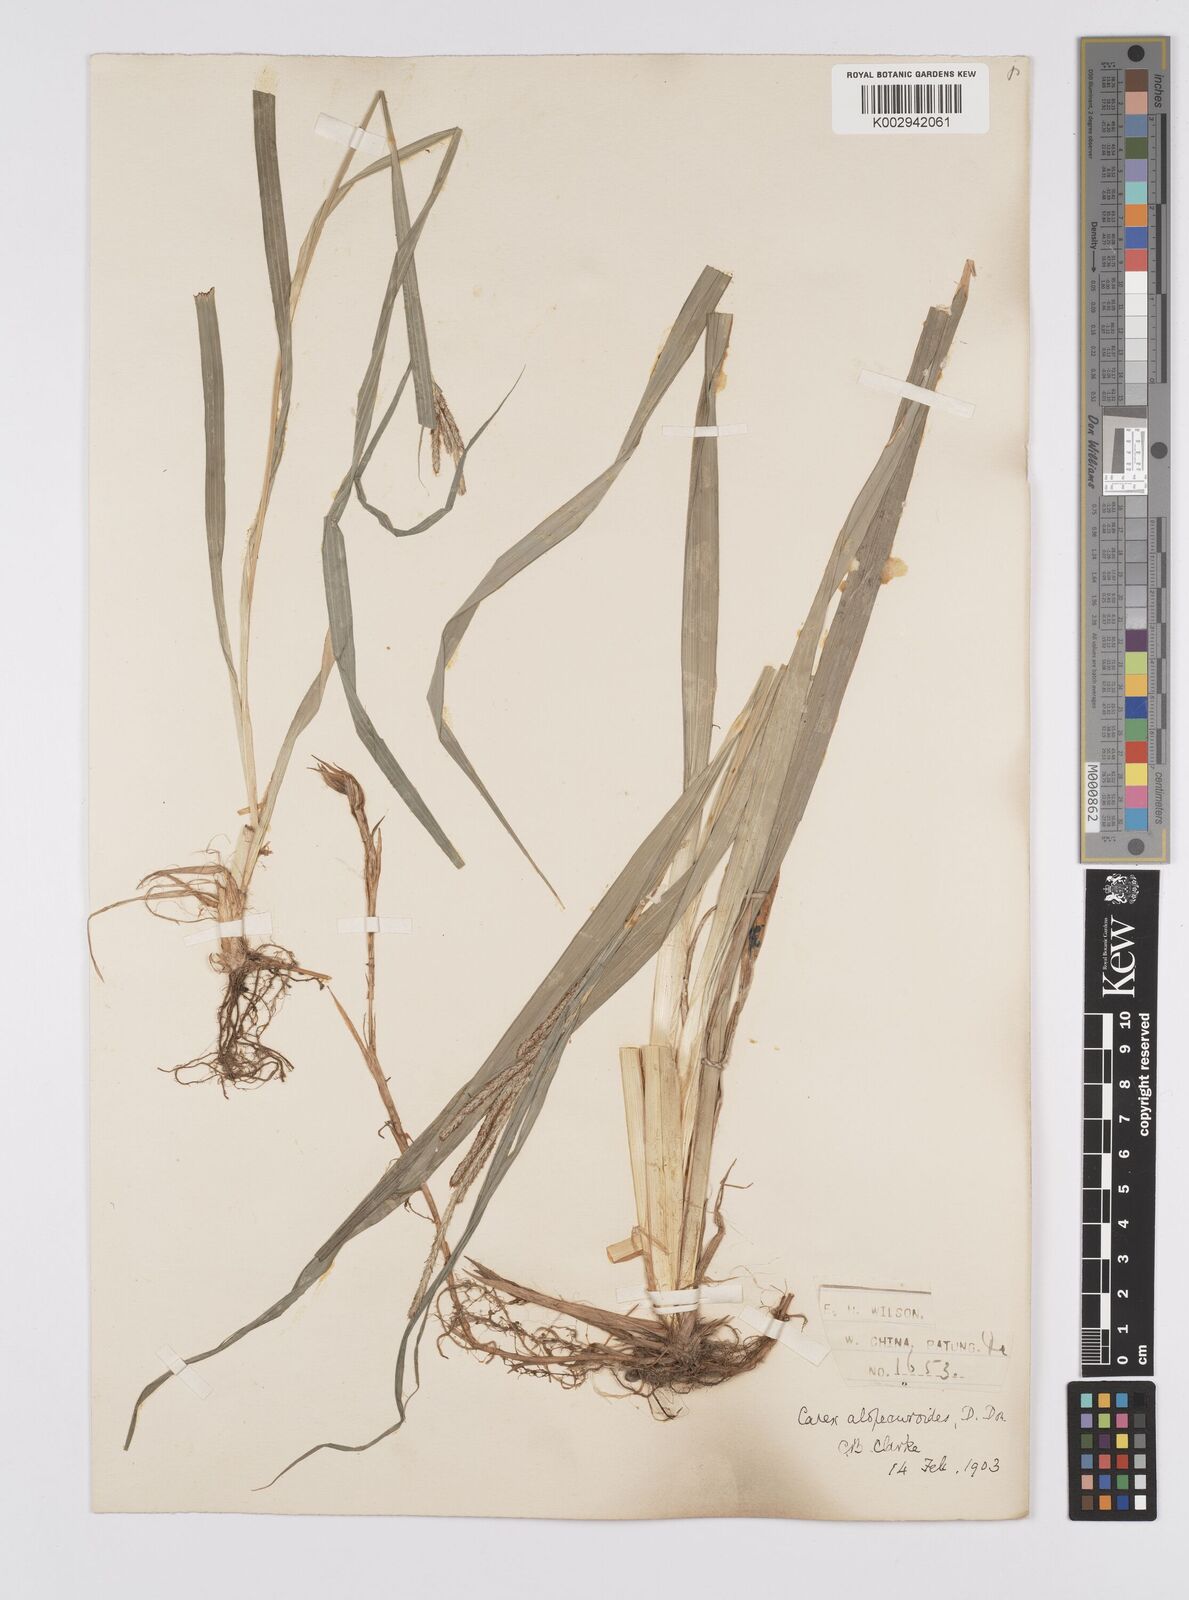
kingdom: Plantae
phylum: Tracheophyta
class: Liliopsida
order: Poales
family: Cyperaceae
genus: Carex
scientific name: Carex japonica
